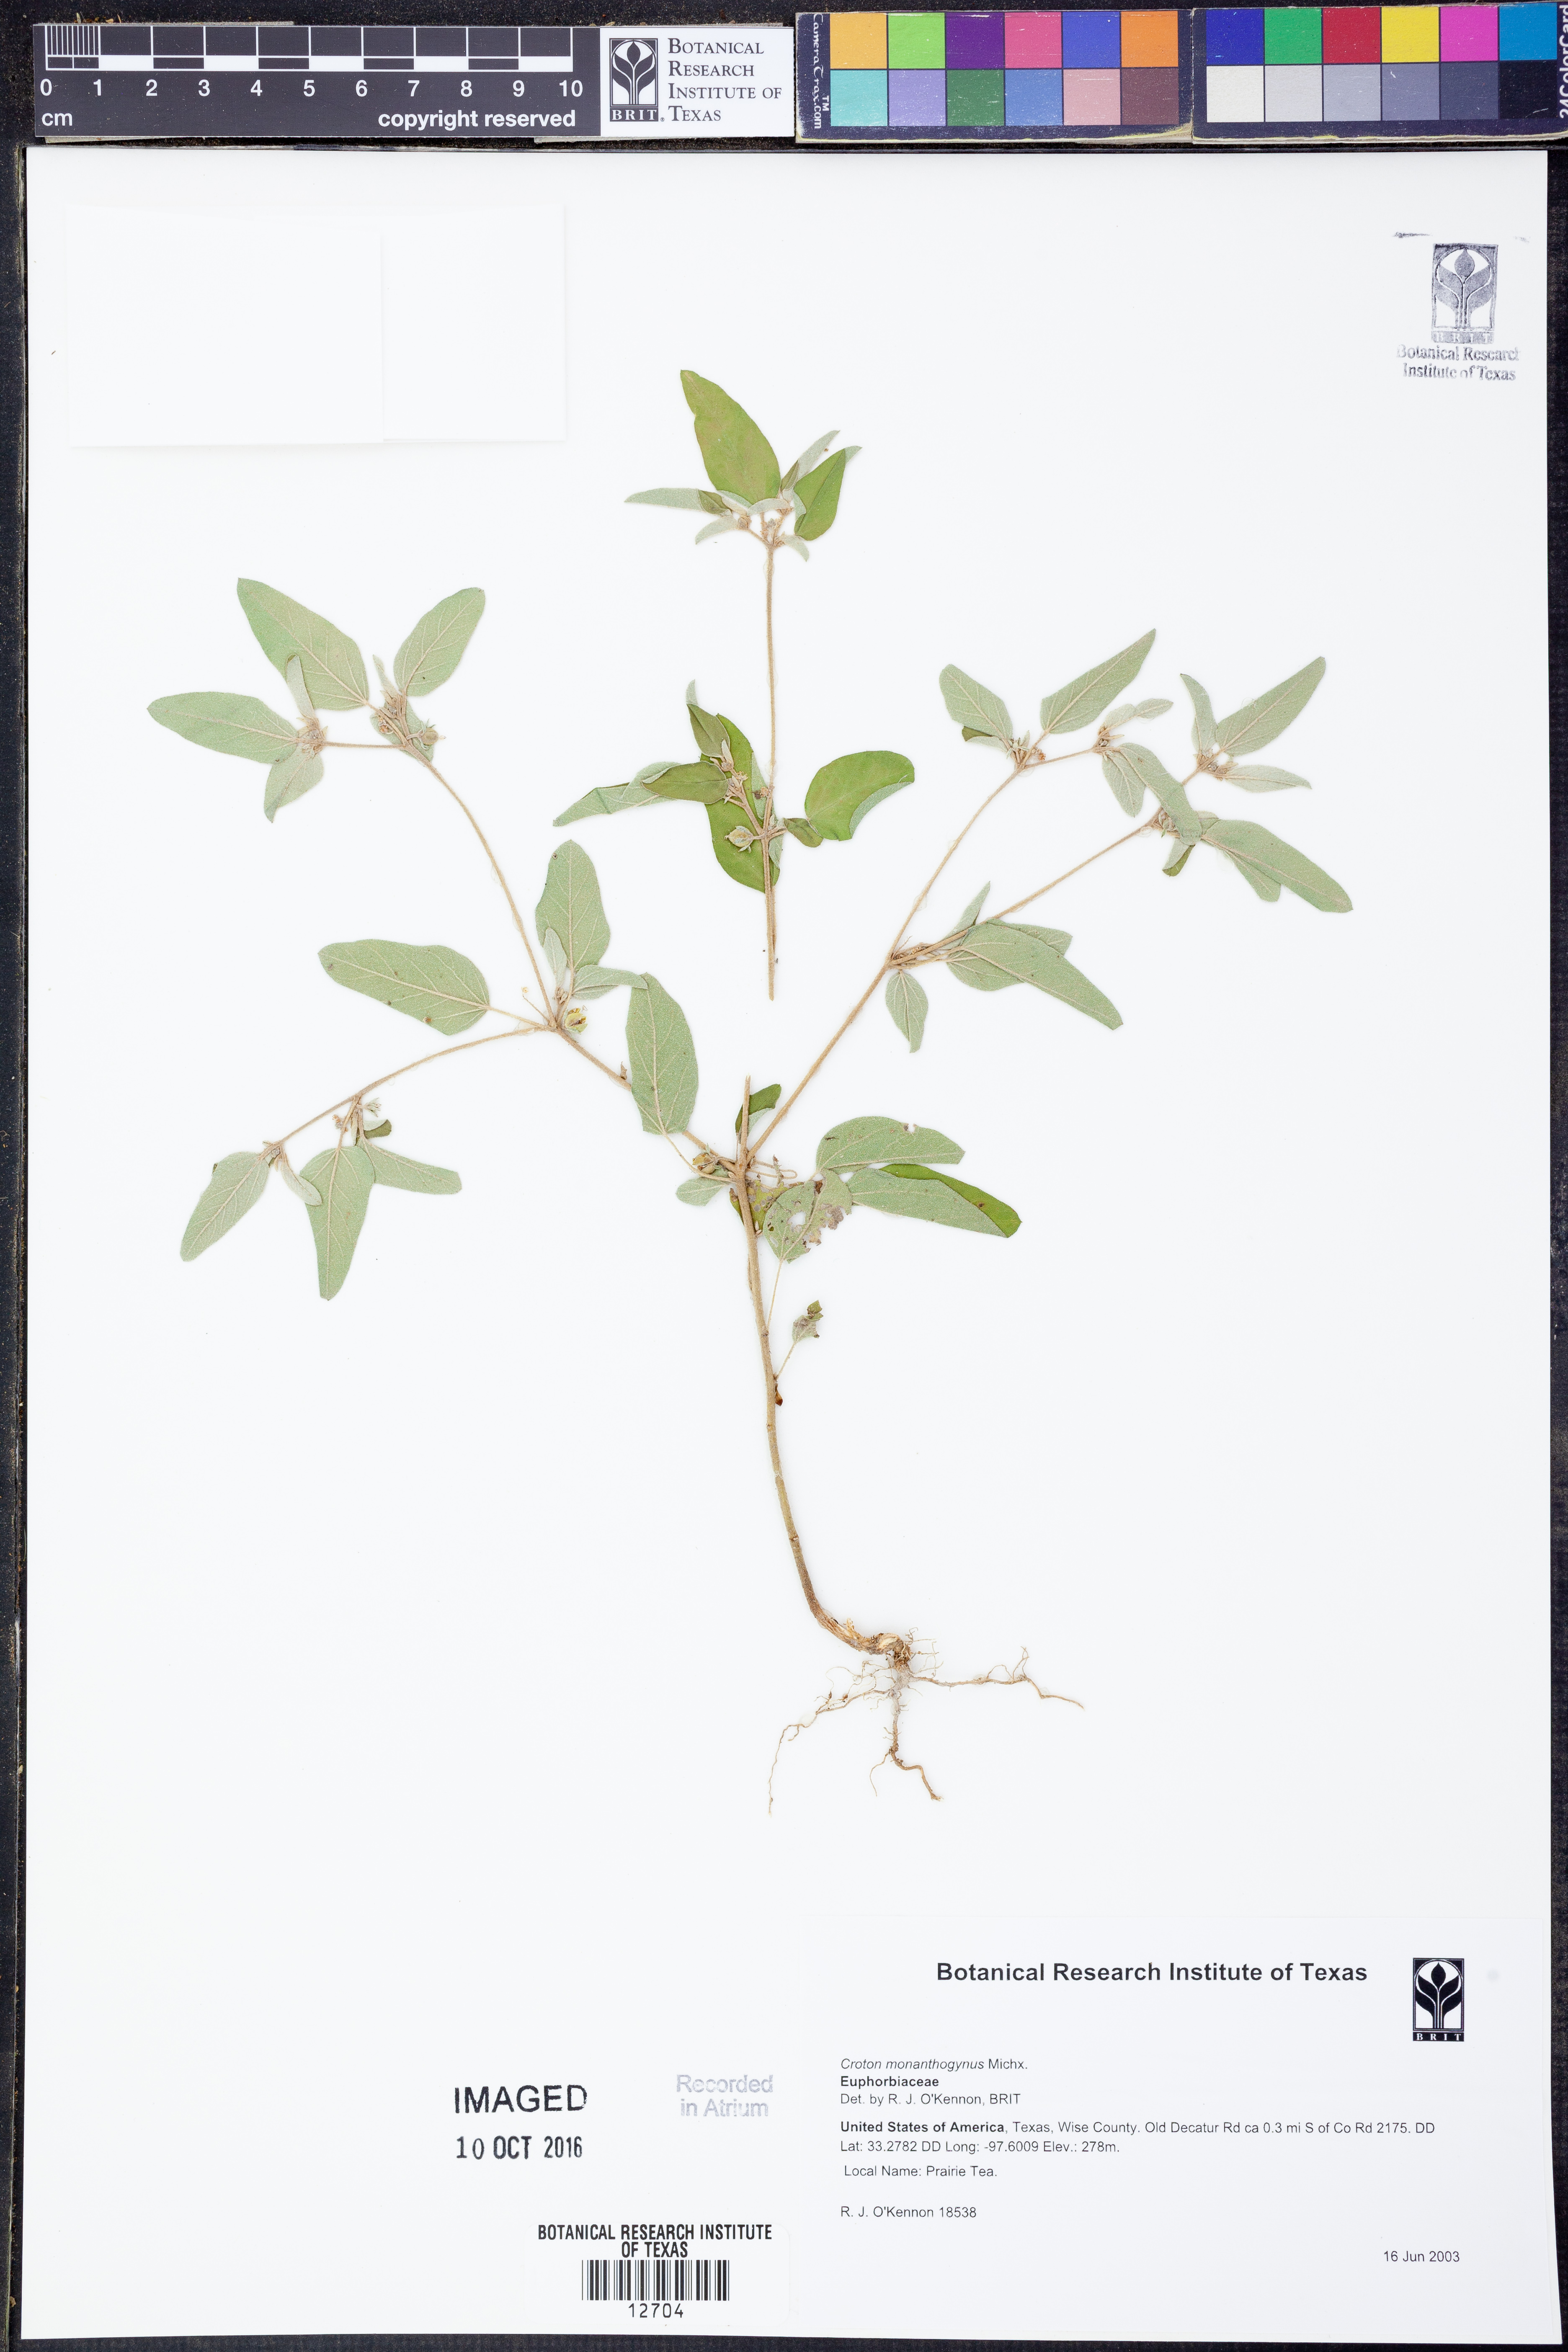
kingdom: Plantae
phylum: Tracheophyta
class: Magnoliopsida
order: Malpighiales
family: Euphorbiaceae
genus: Croton
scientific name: Croton monanthogynus
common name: One-seed croton
